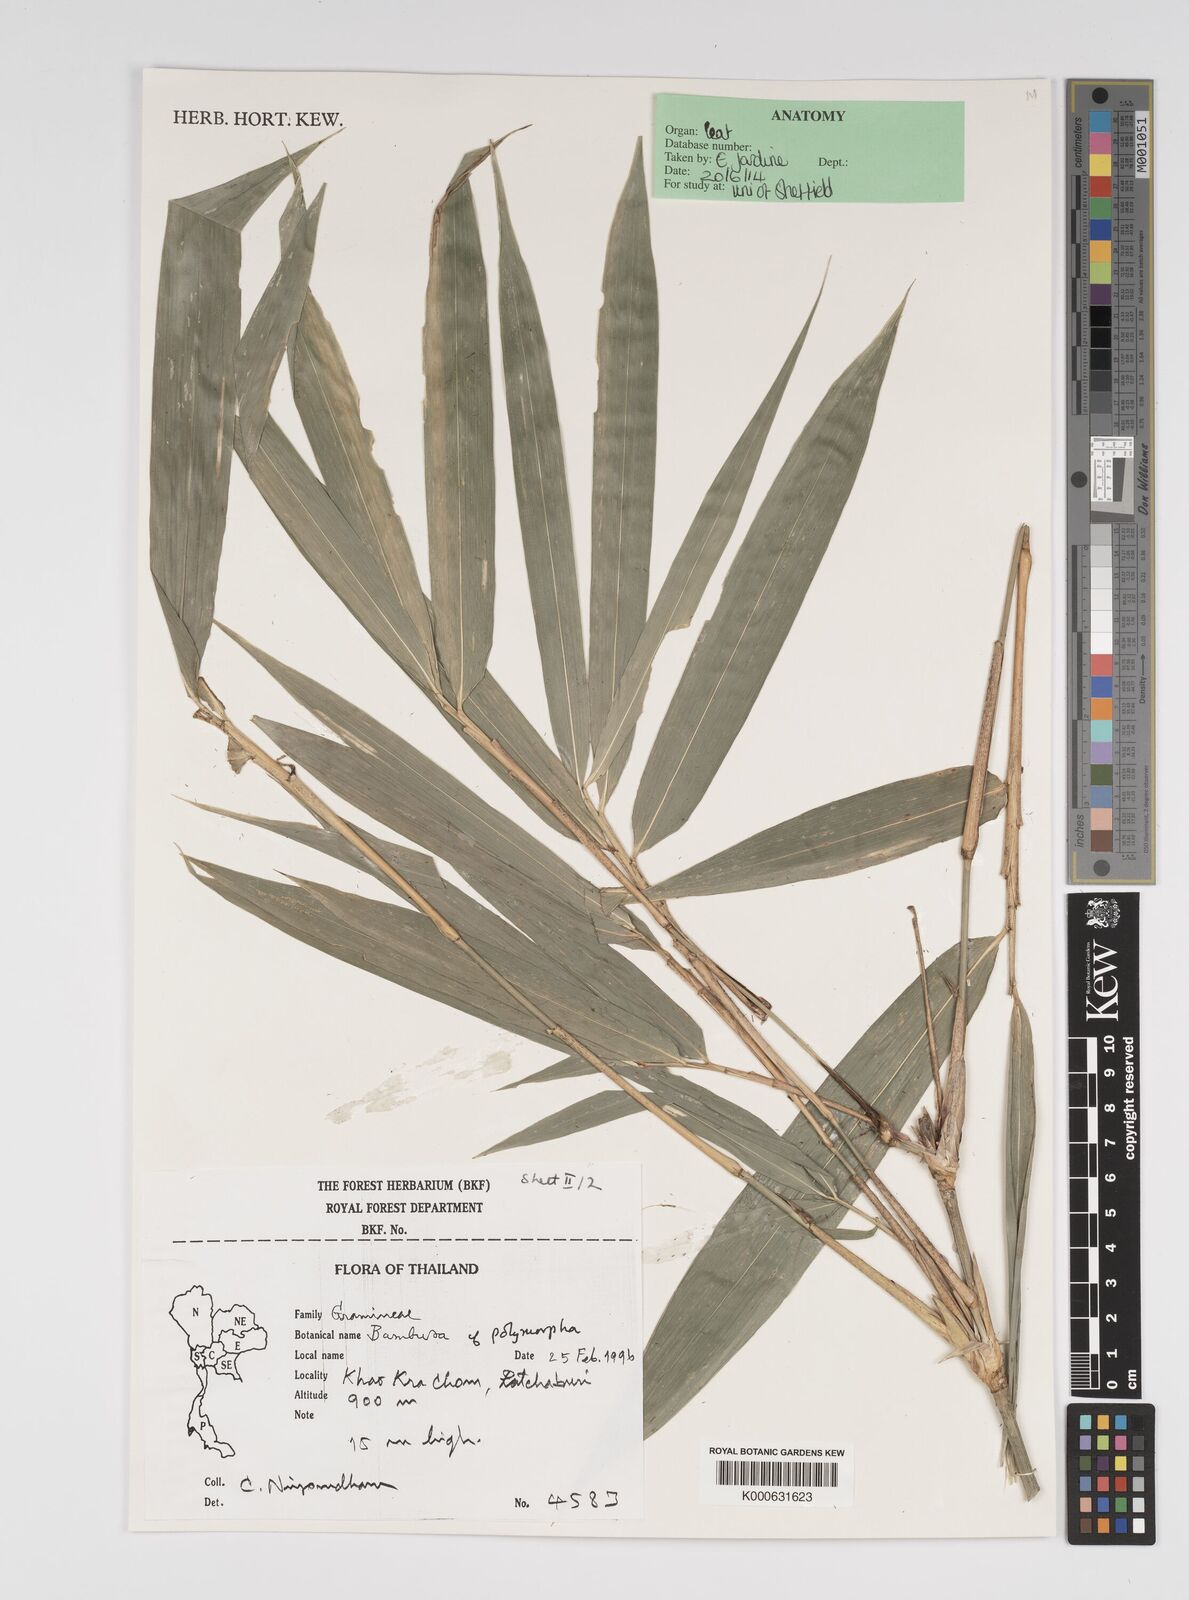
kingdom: Plantae
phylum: Tracheophyta
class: Liliopsida
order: Poales
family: Poaceae
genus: Bambusa
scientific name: Bambusa polymorpha
